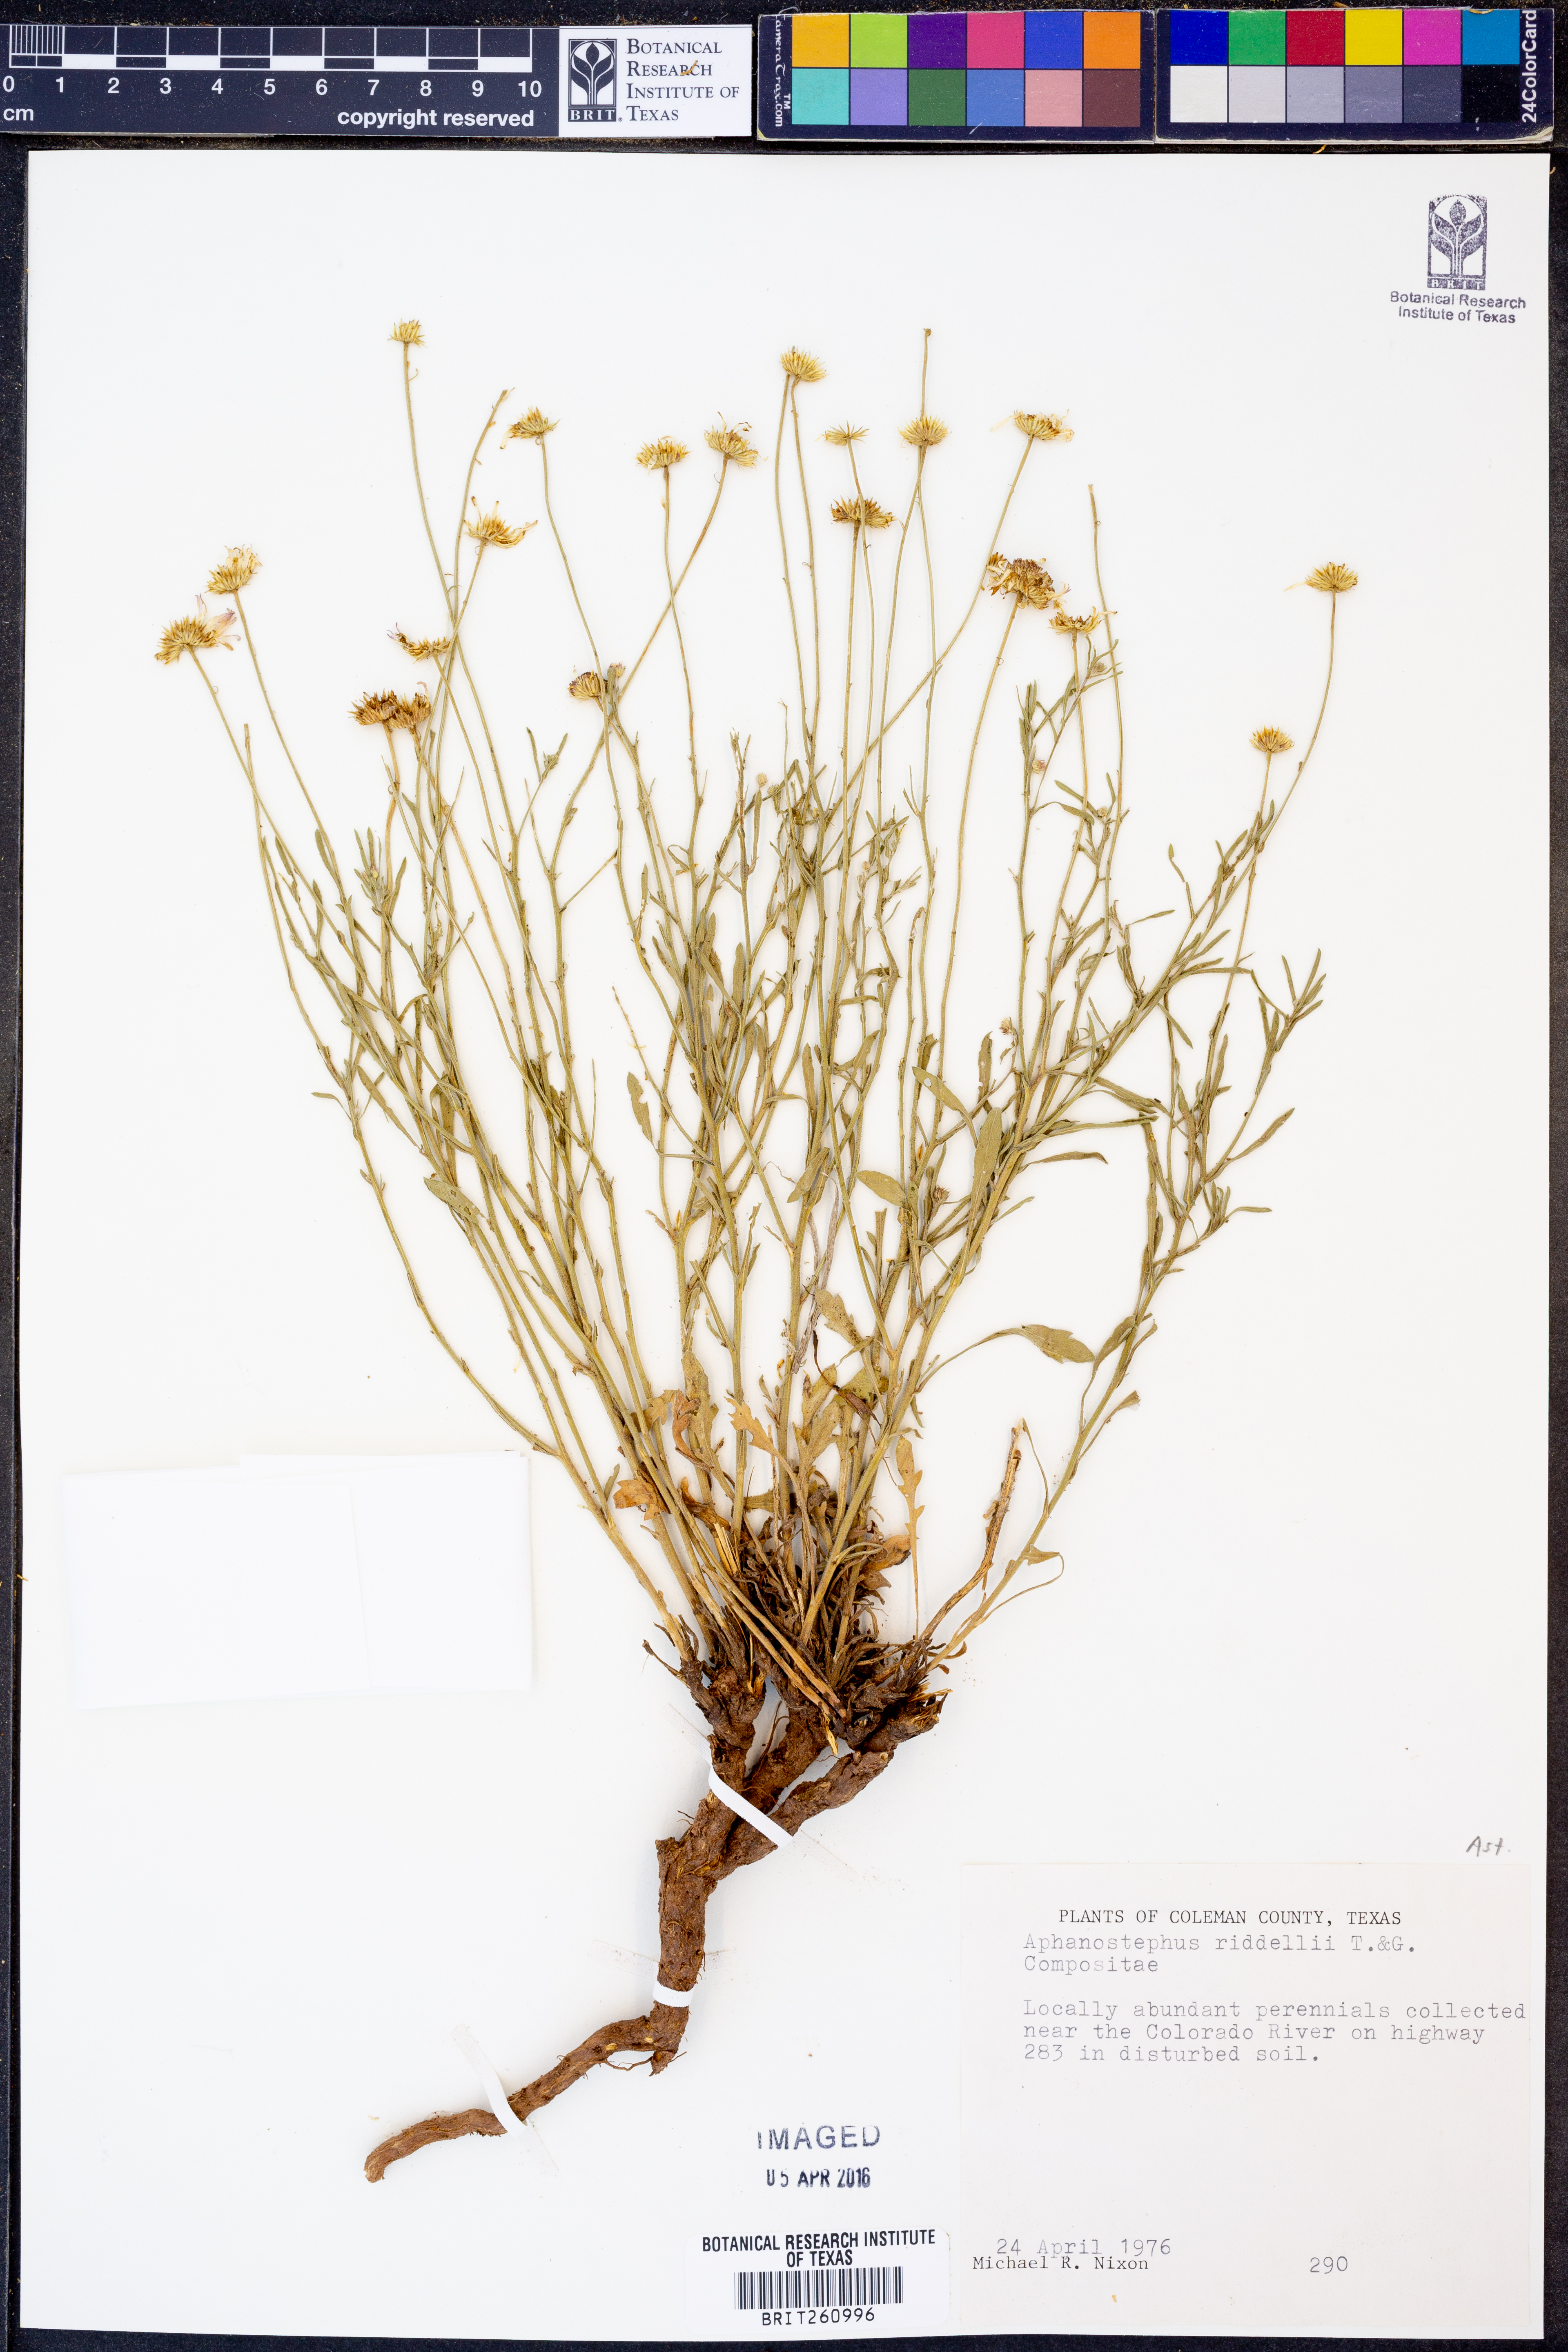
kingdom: Plantae
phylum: Tracheophyta
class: Magnoliopsida
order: Asterales
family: Asteraceae
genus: Aphanostephus
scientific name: Aphanostephus riddellii
